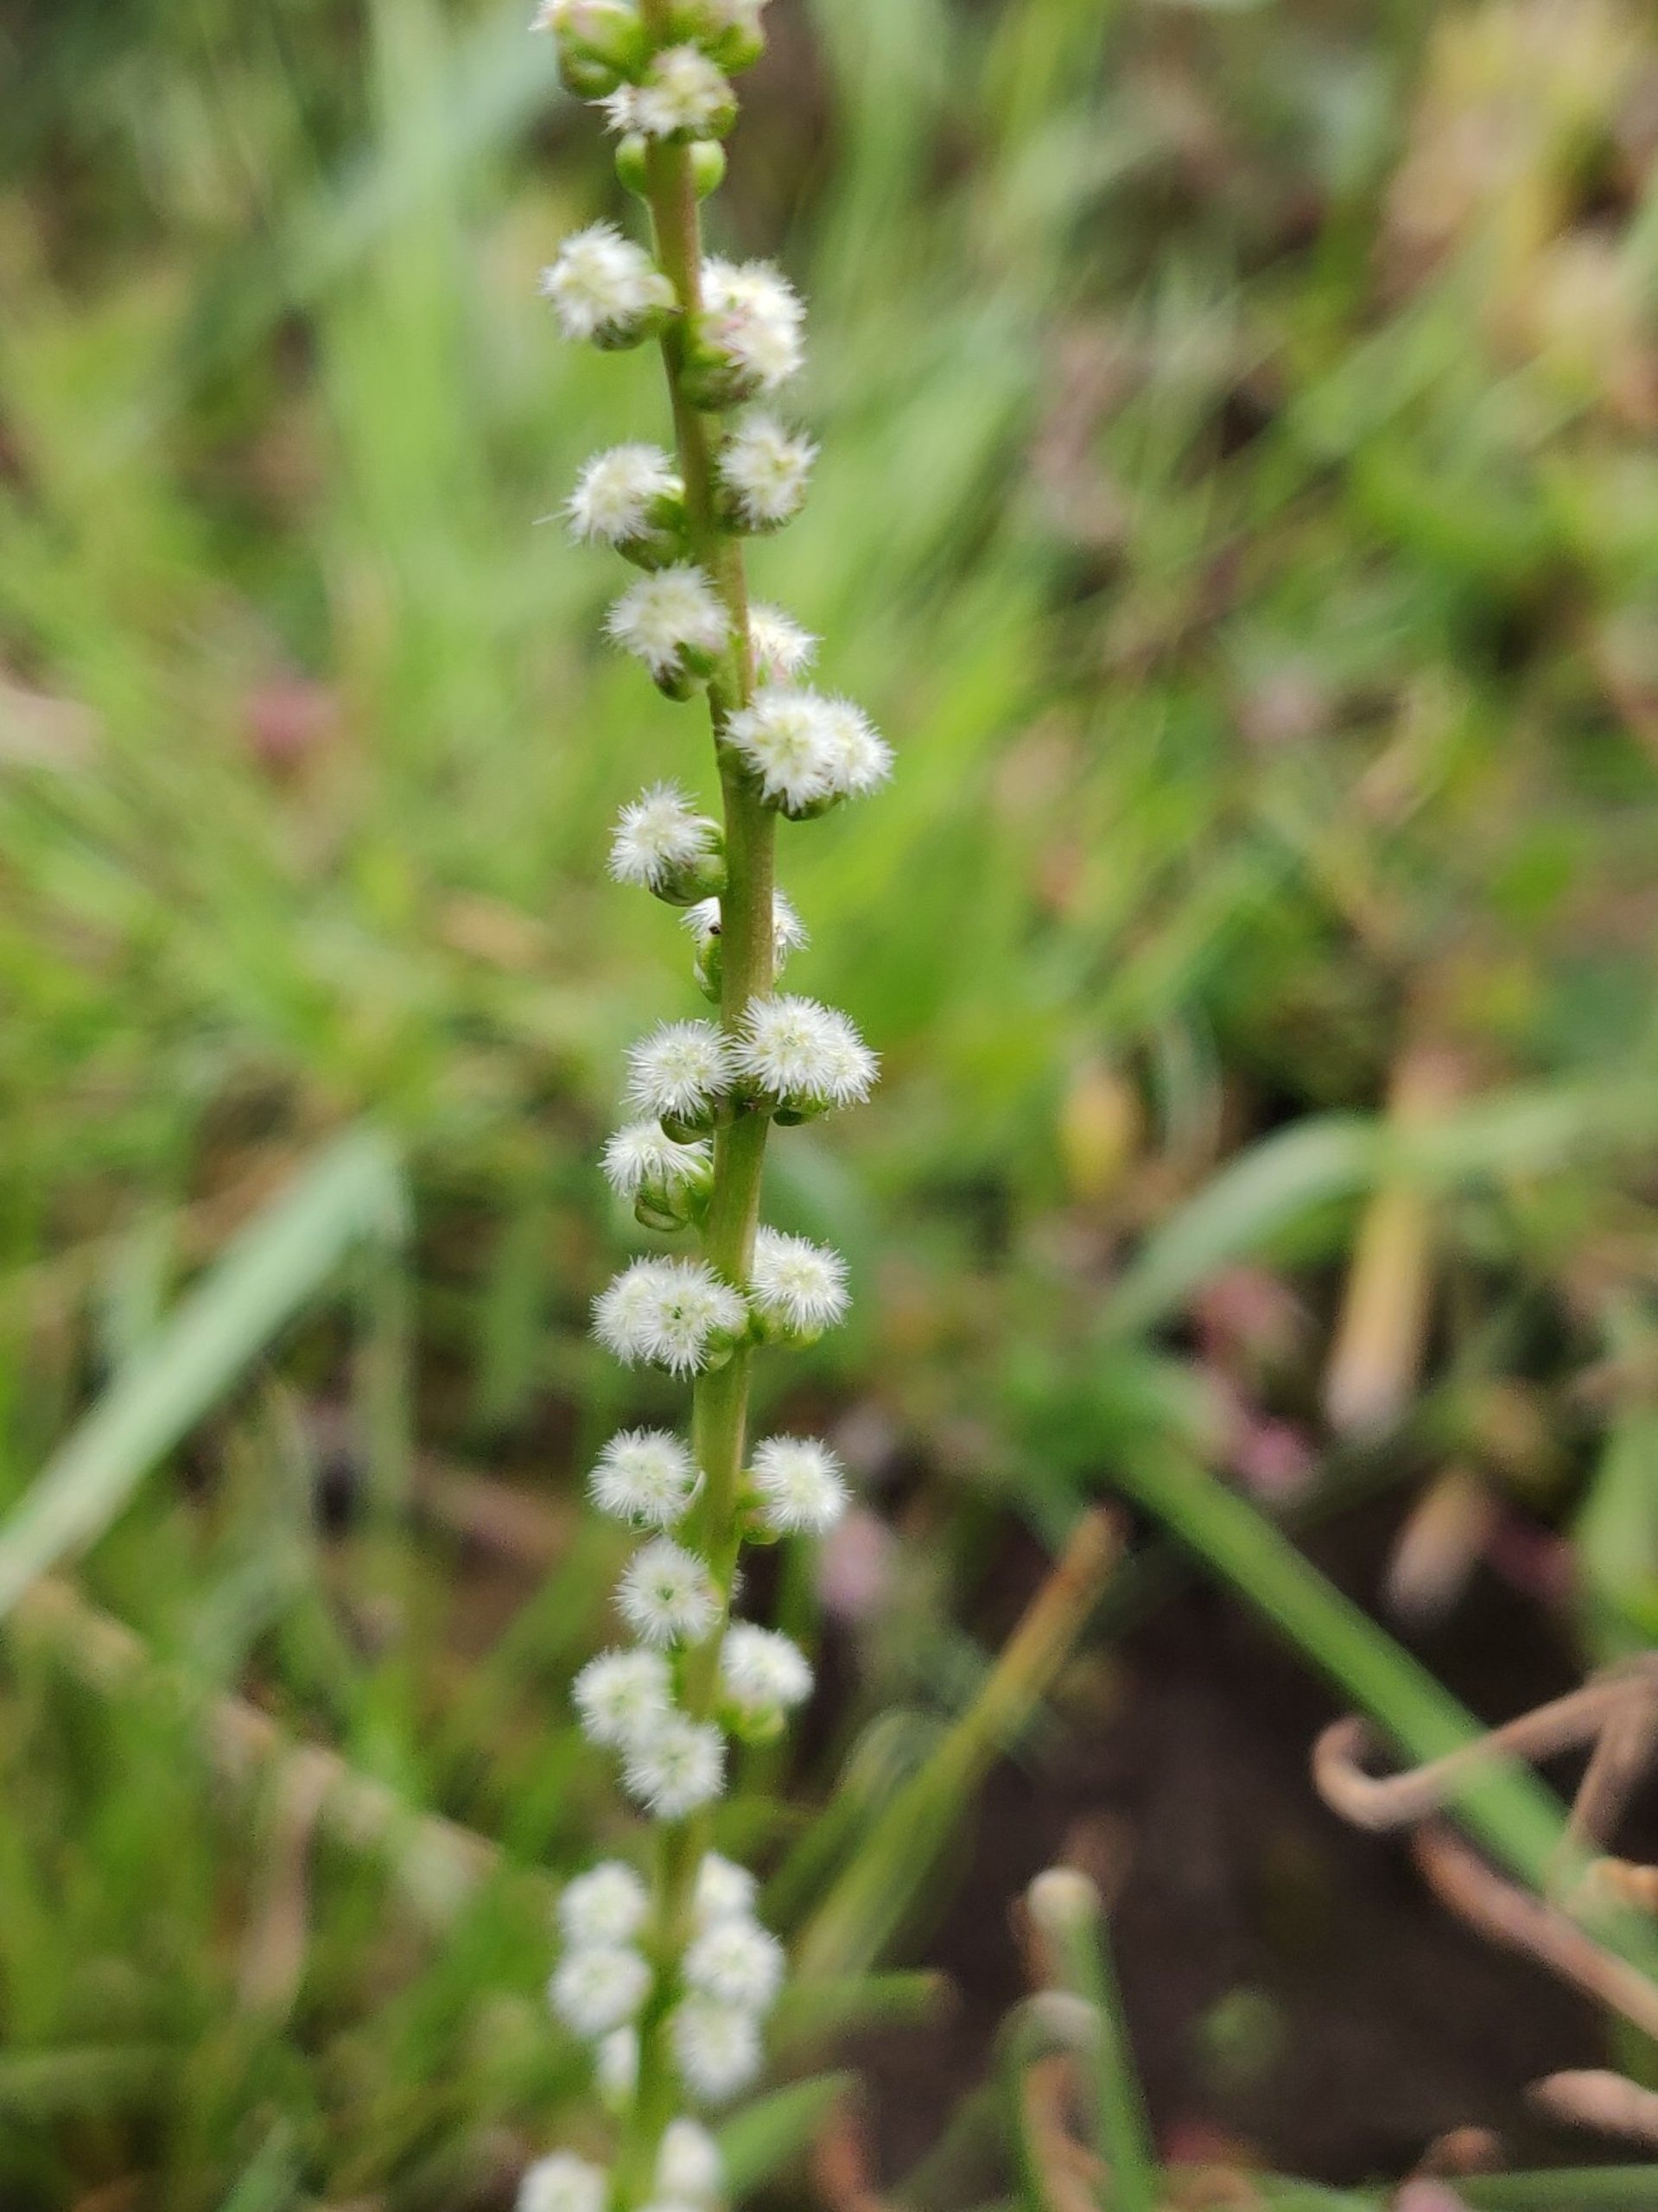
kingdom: Plantae
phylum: Tracheophyta
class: Liliopsida
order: Alismatales
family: Juncaginaceae
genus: Triglochin
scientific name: Triglochin maritima
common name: Strand-trehage
